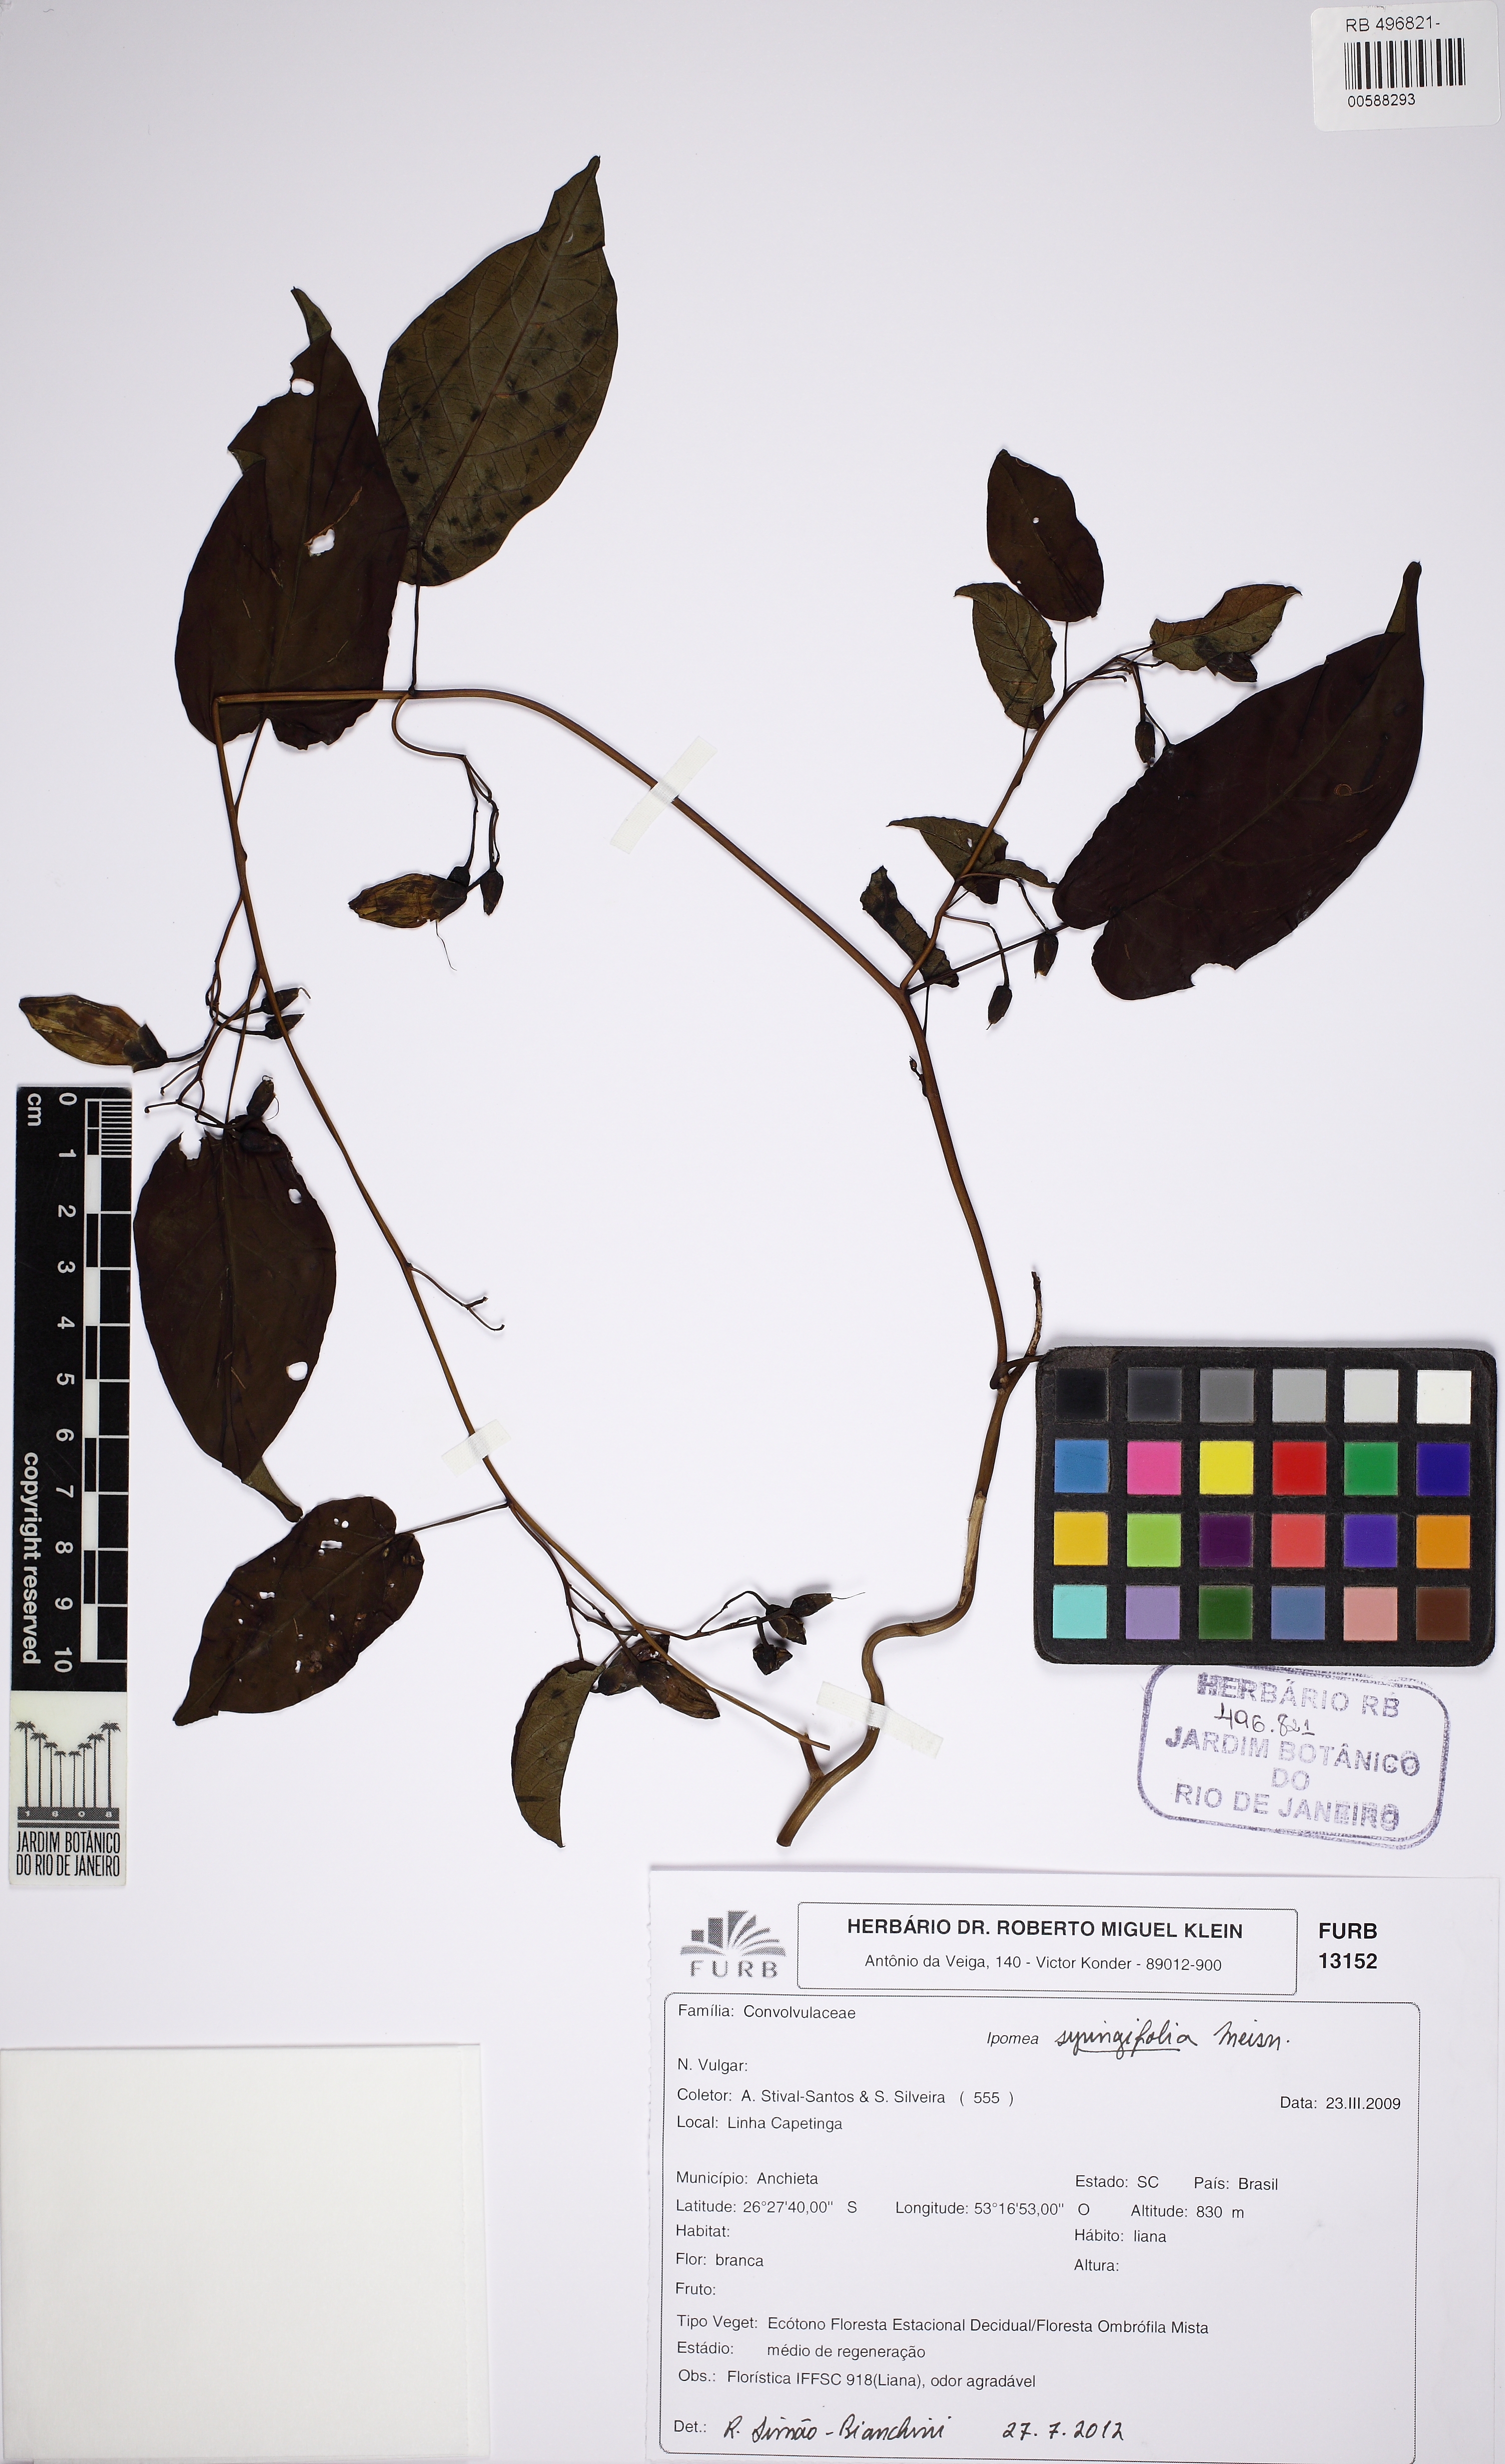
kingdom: Plantae
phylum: Tracheophyta
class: Magnoliopsida
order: Solanales
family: Convolvulaceae
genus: Ipomoea
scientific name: Ipomoea syringifolia
